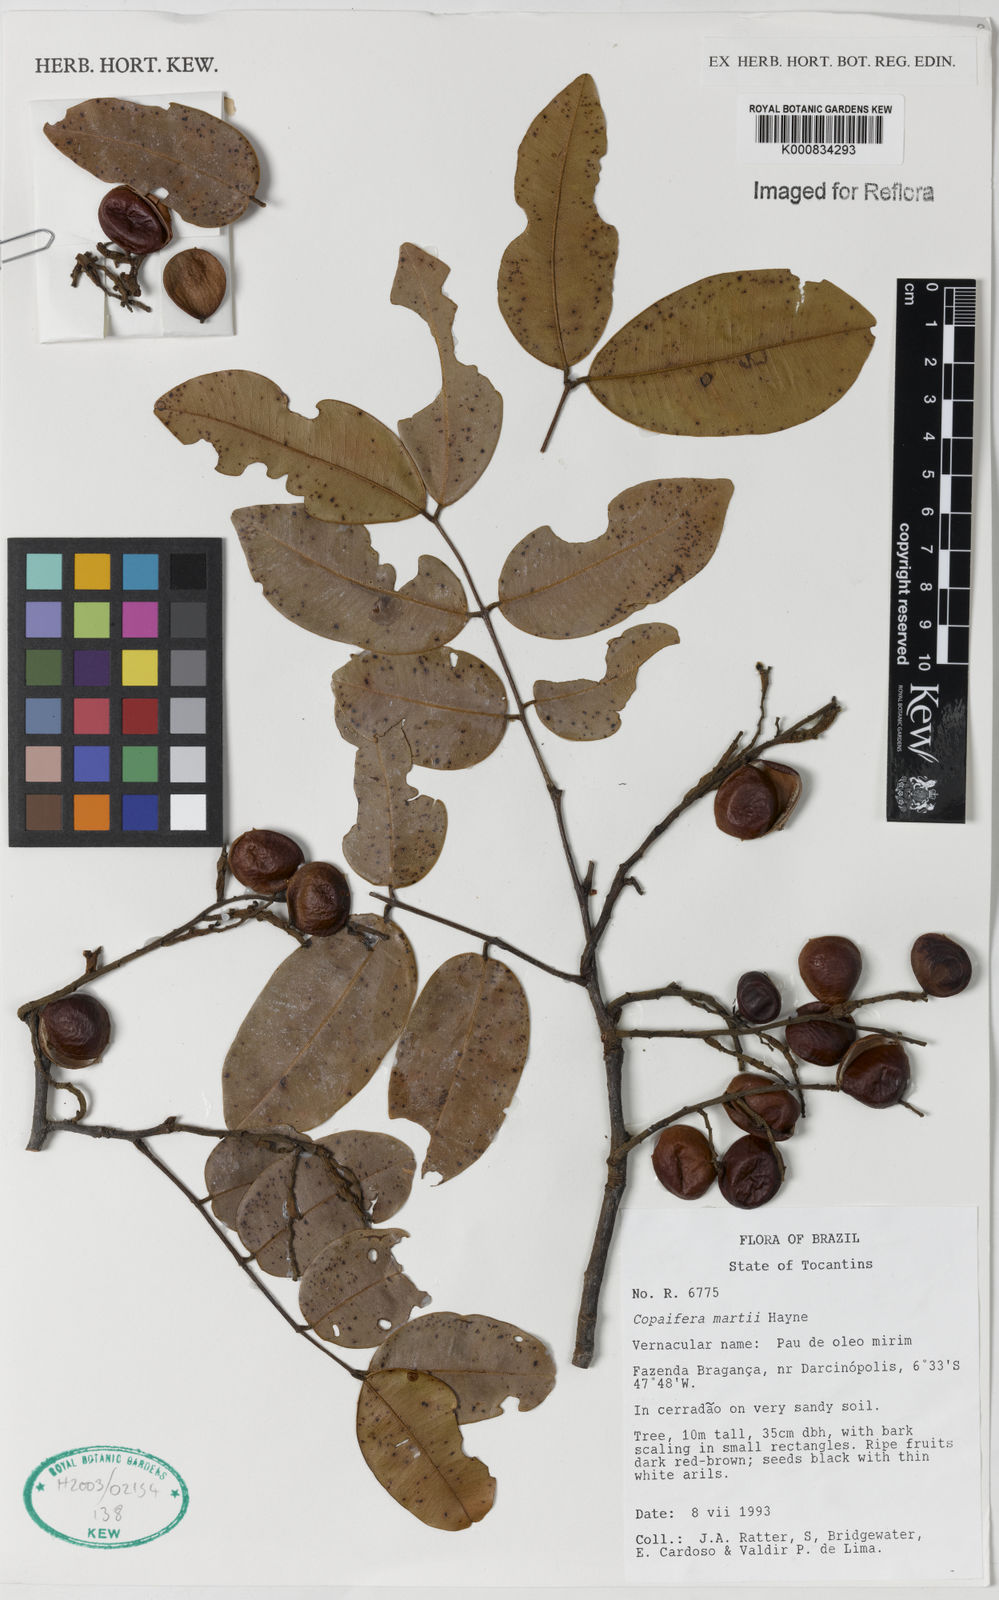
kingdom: Plantae
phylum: Tracheophyta
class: Magnoliopsida
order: Fabales
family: Fabaceae
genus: Copaifera
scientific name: Copaifera martii
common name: Copaiba
